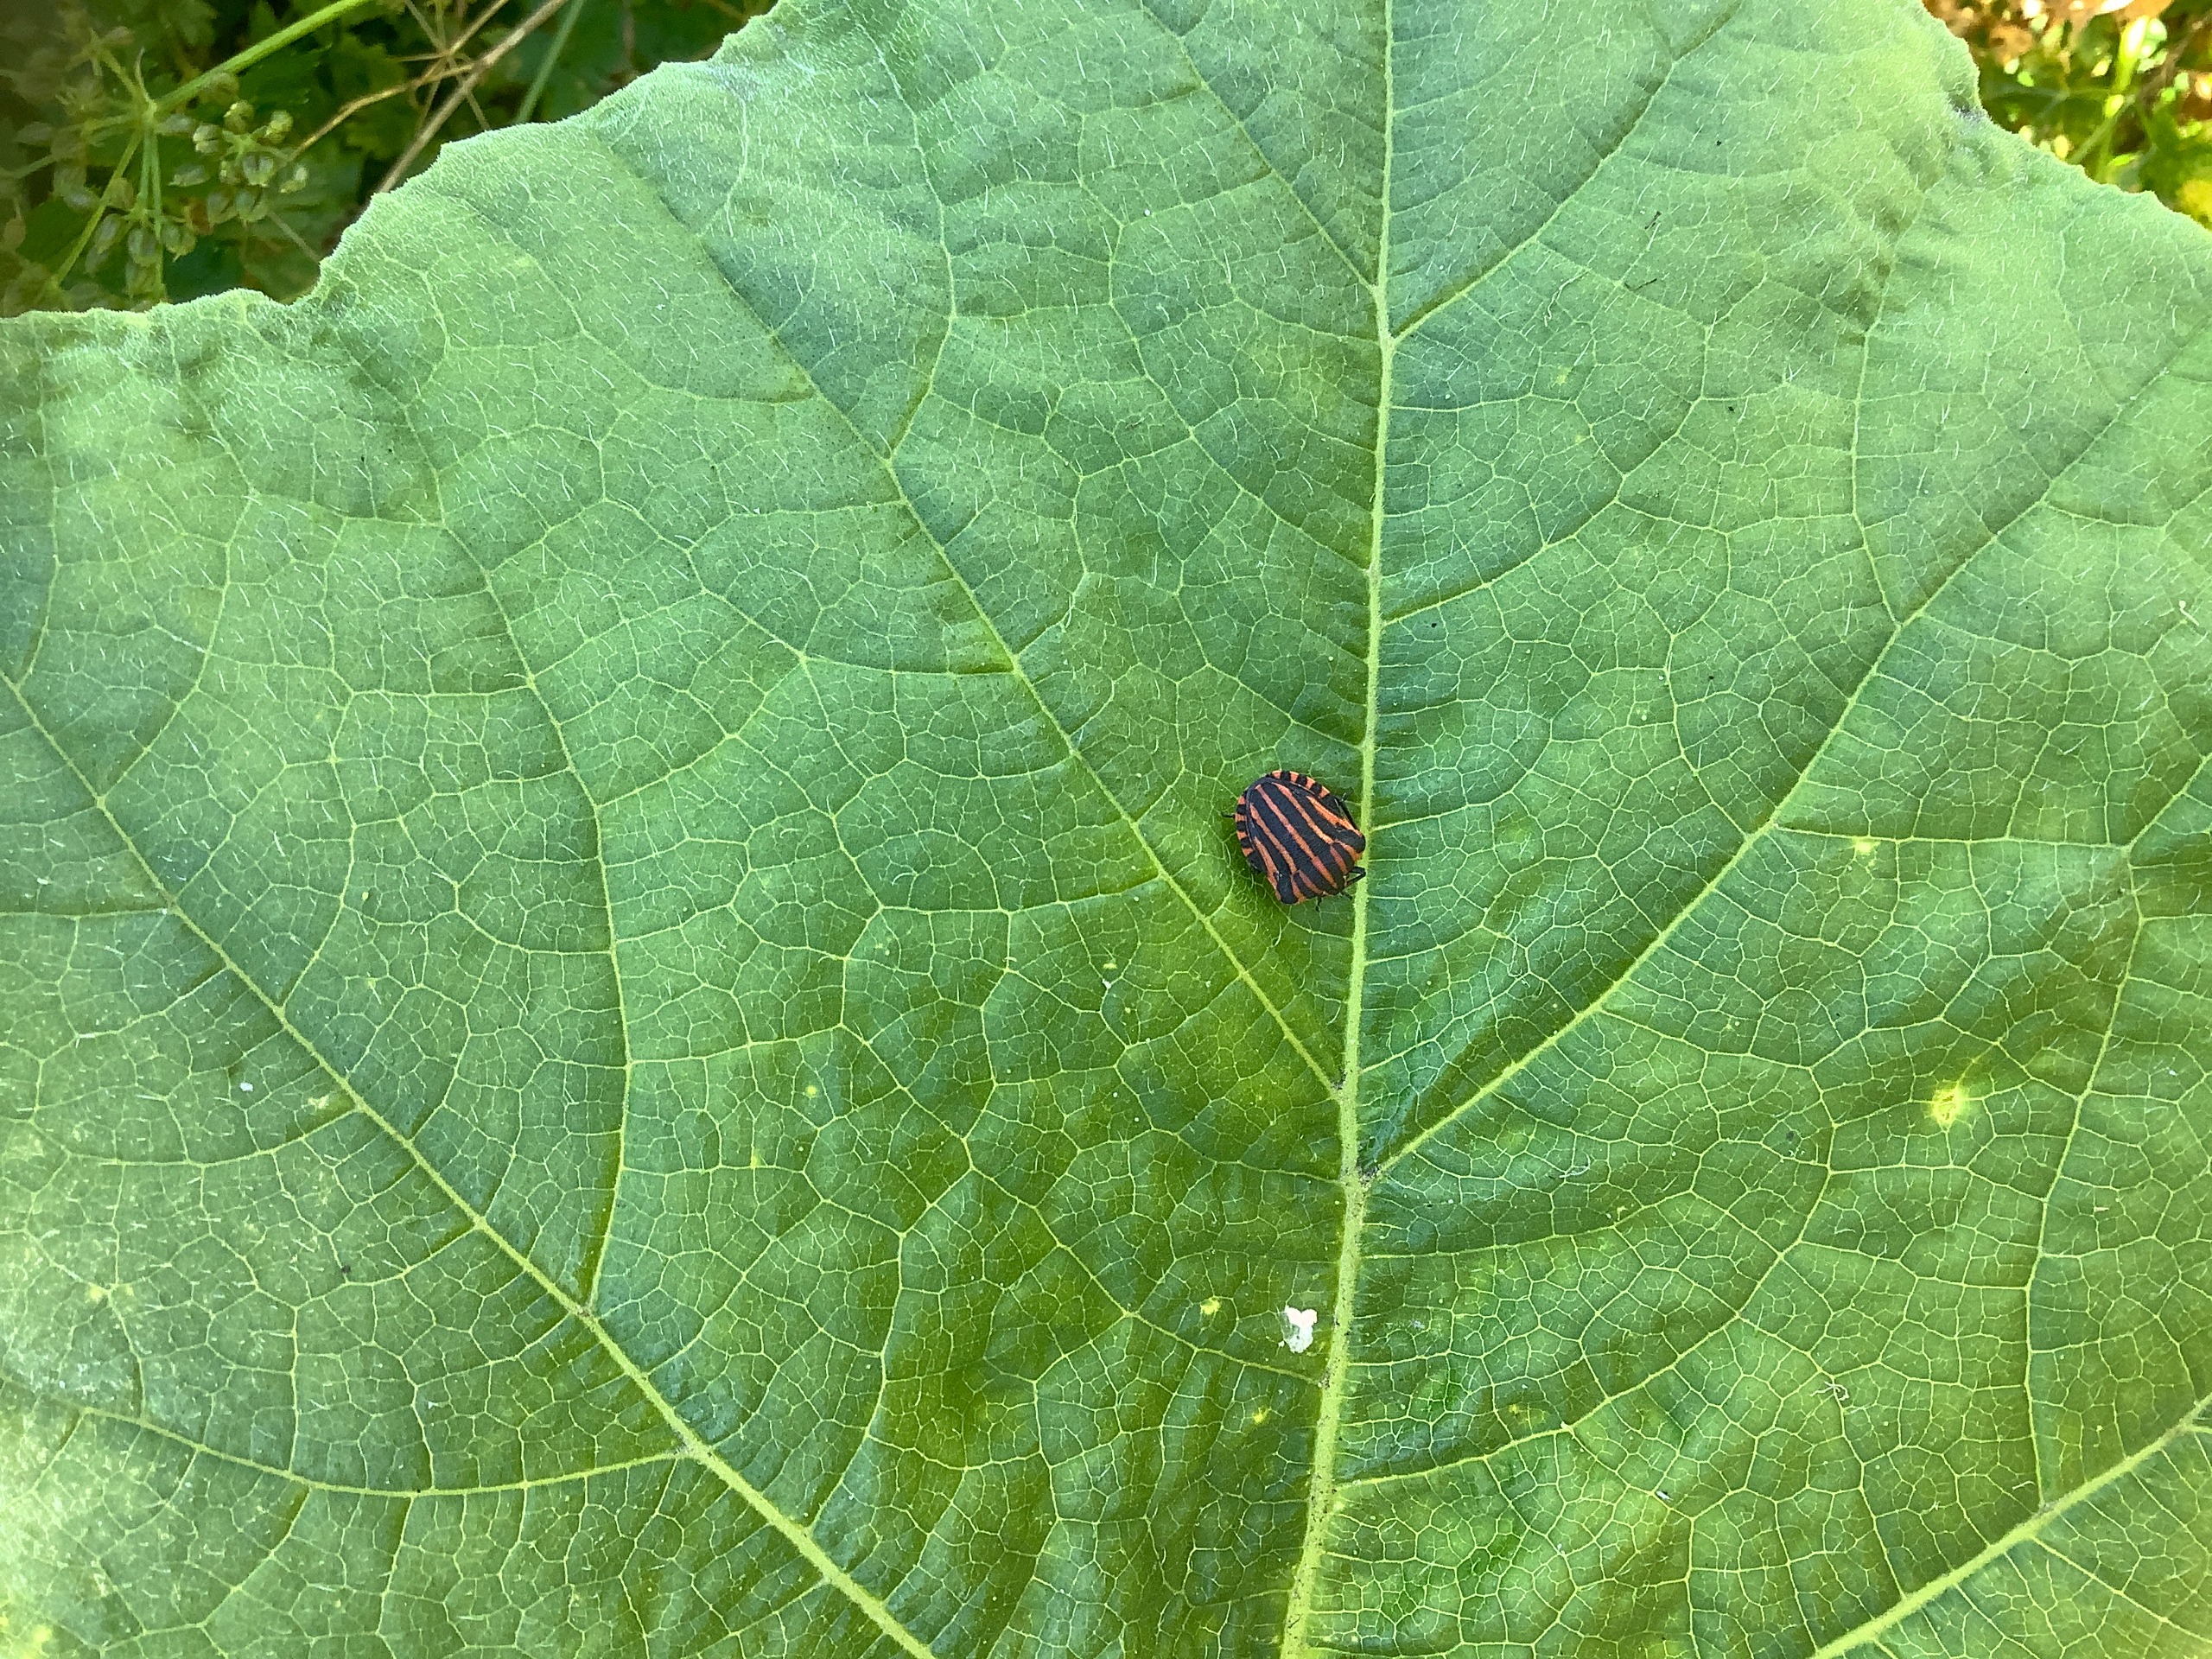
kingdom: Animalia
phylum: Arthropoda
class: Insecta
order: Hemiptera
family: Pentatomidae
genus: Graphosoma
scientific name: Graphosoma italicum
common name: Stribetæge
